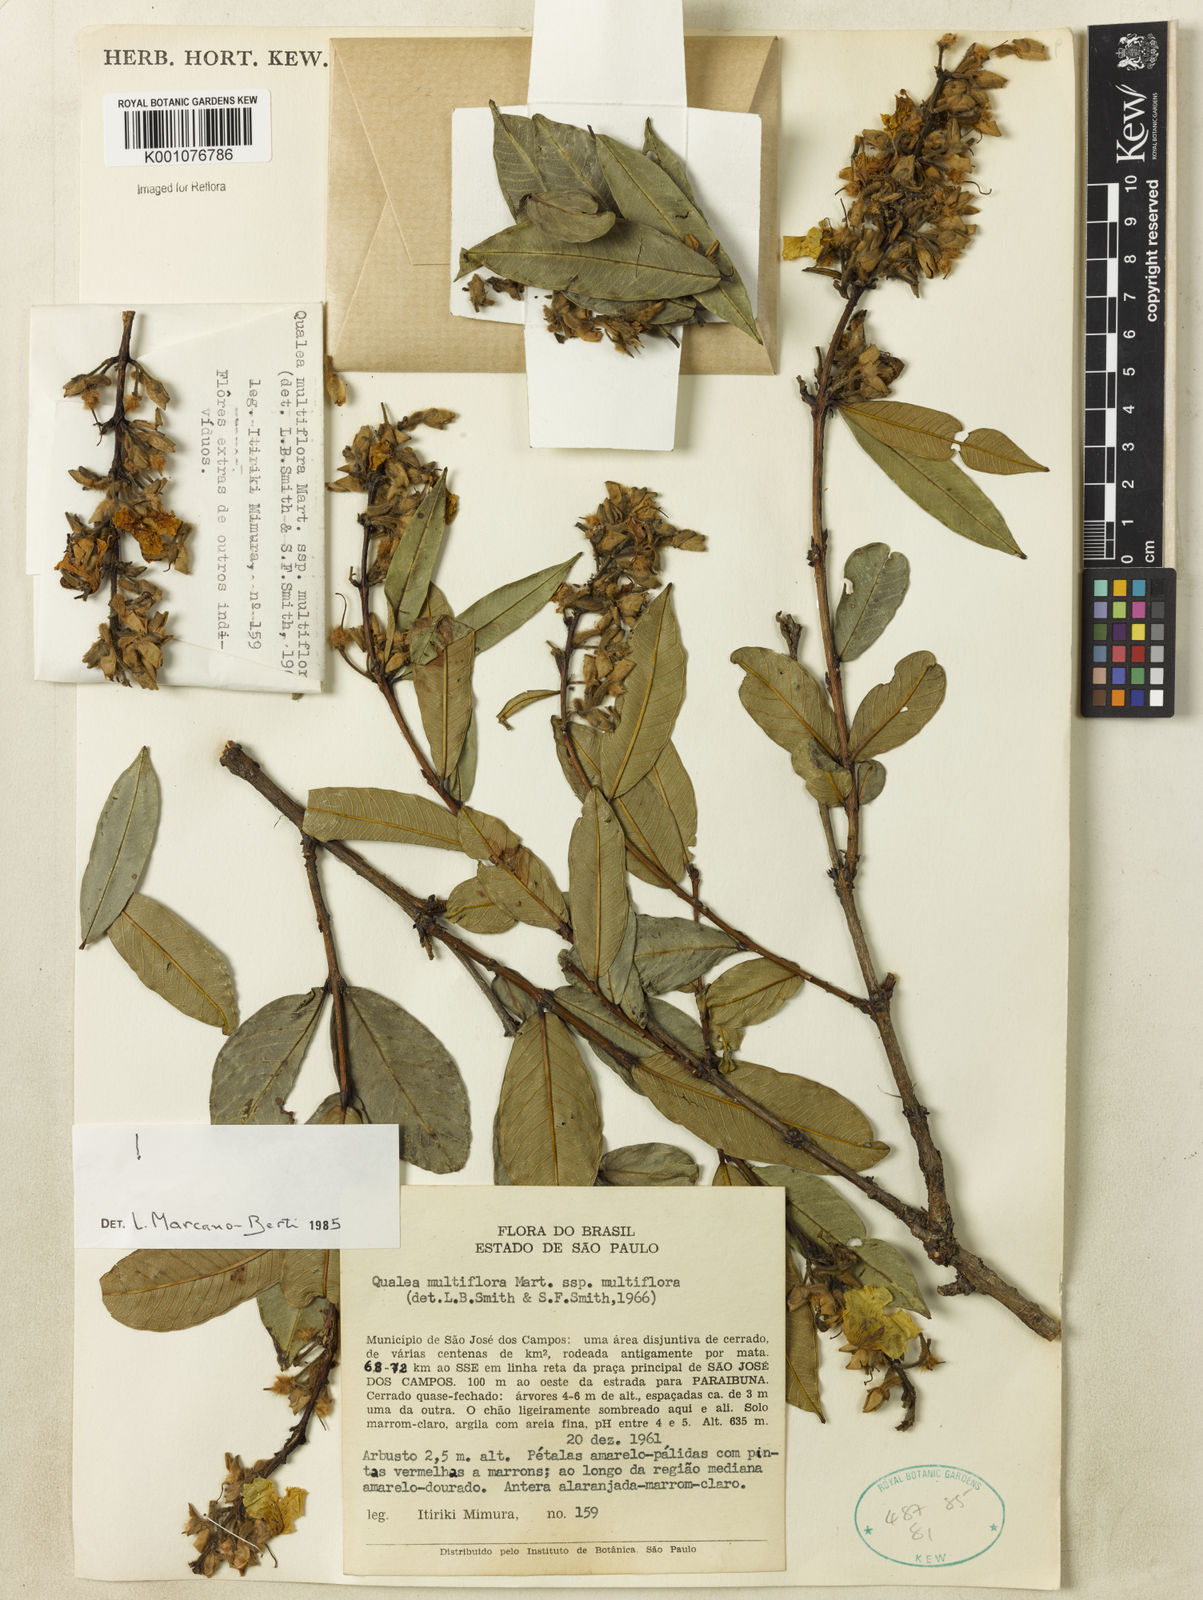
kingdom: Plantae
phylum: Tracheophyta
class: Magnoliopsida
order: Myrtales
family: Vochysiaceae
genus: Qualea
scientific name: Qualea multiflora
